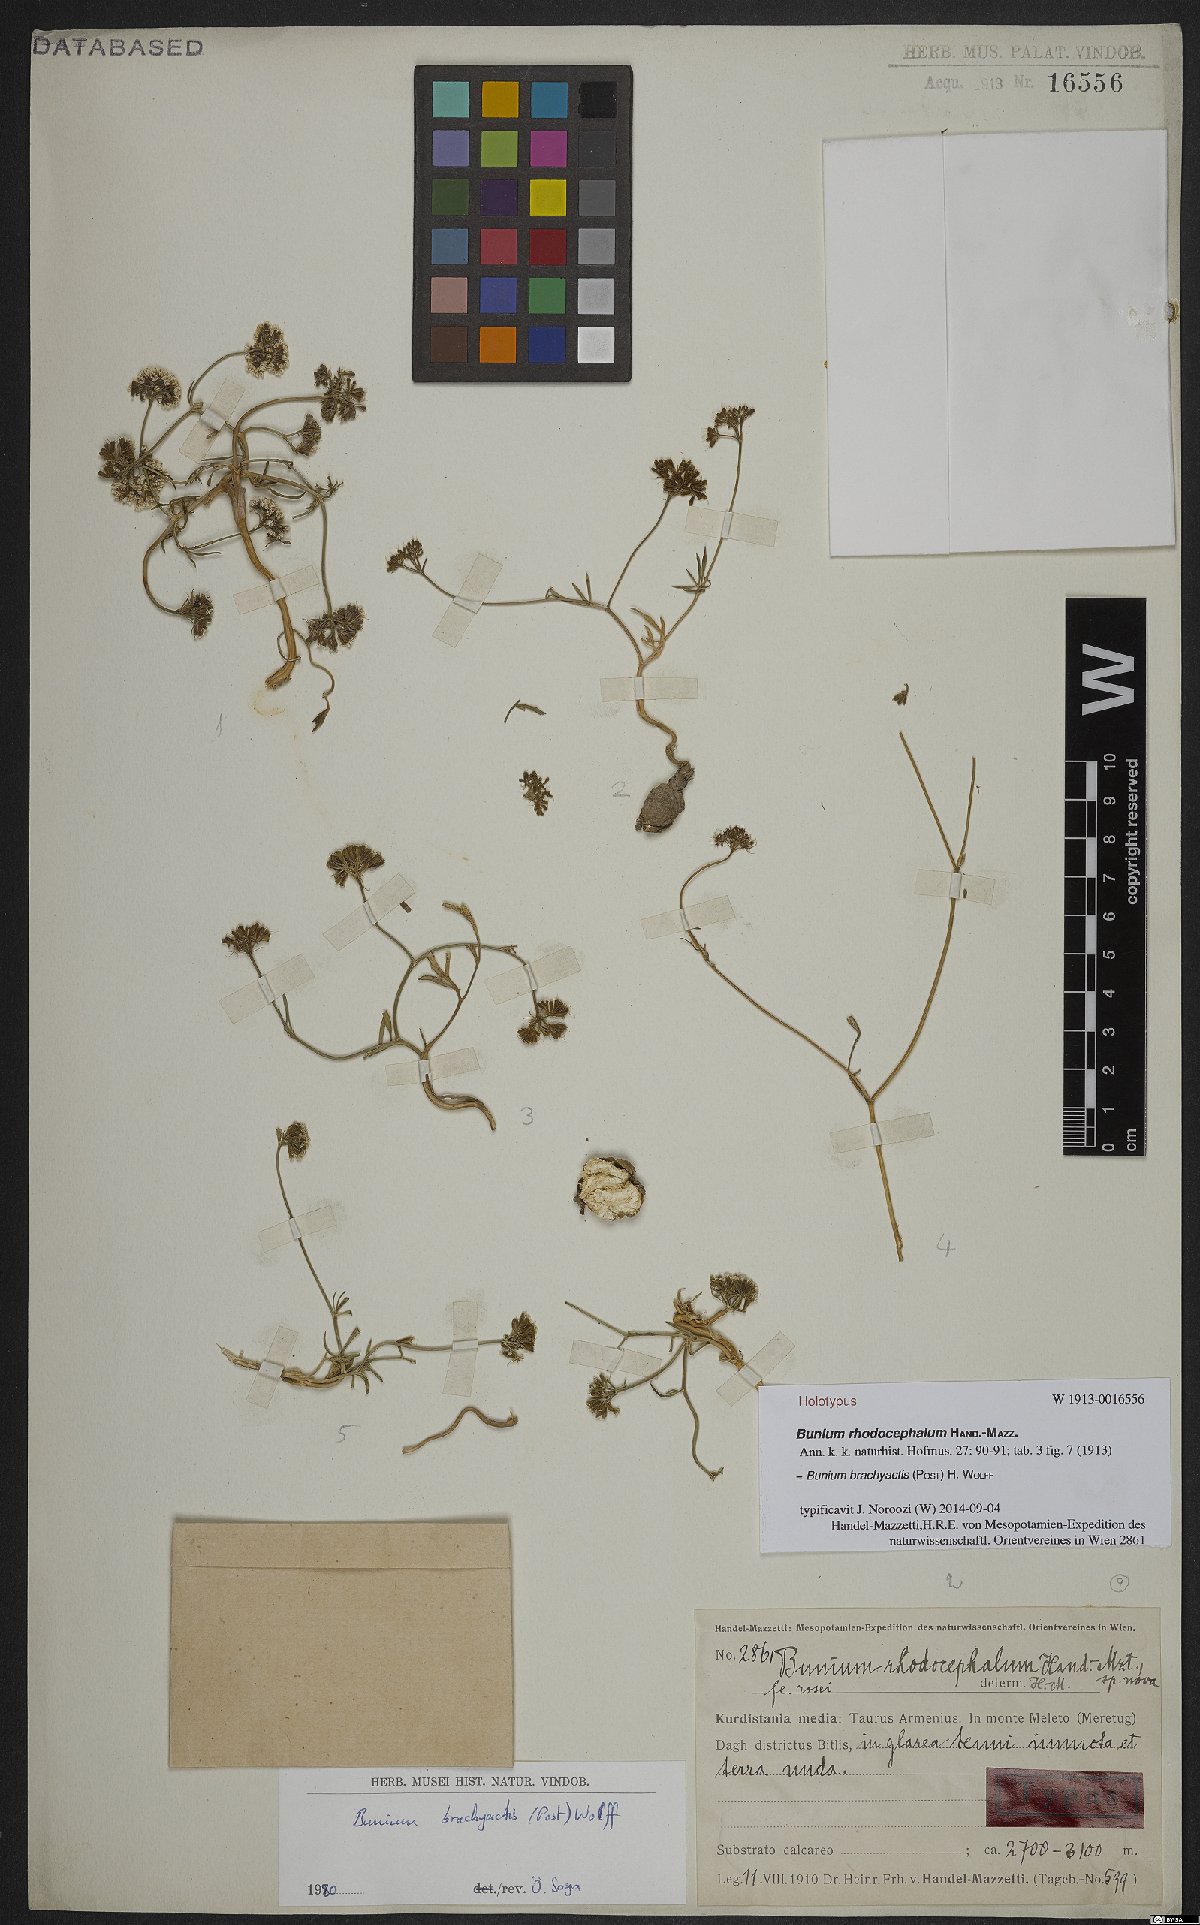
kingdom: Plantae
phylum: Tracheophyta
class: Magnoliopsida
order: Apiales
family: Apiaceae
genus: Bunium
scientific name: Bunium brachyactis
